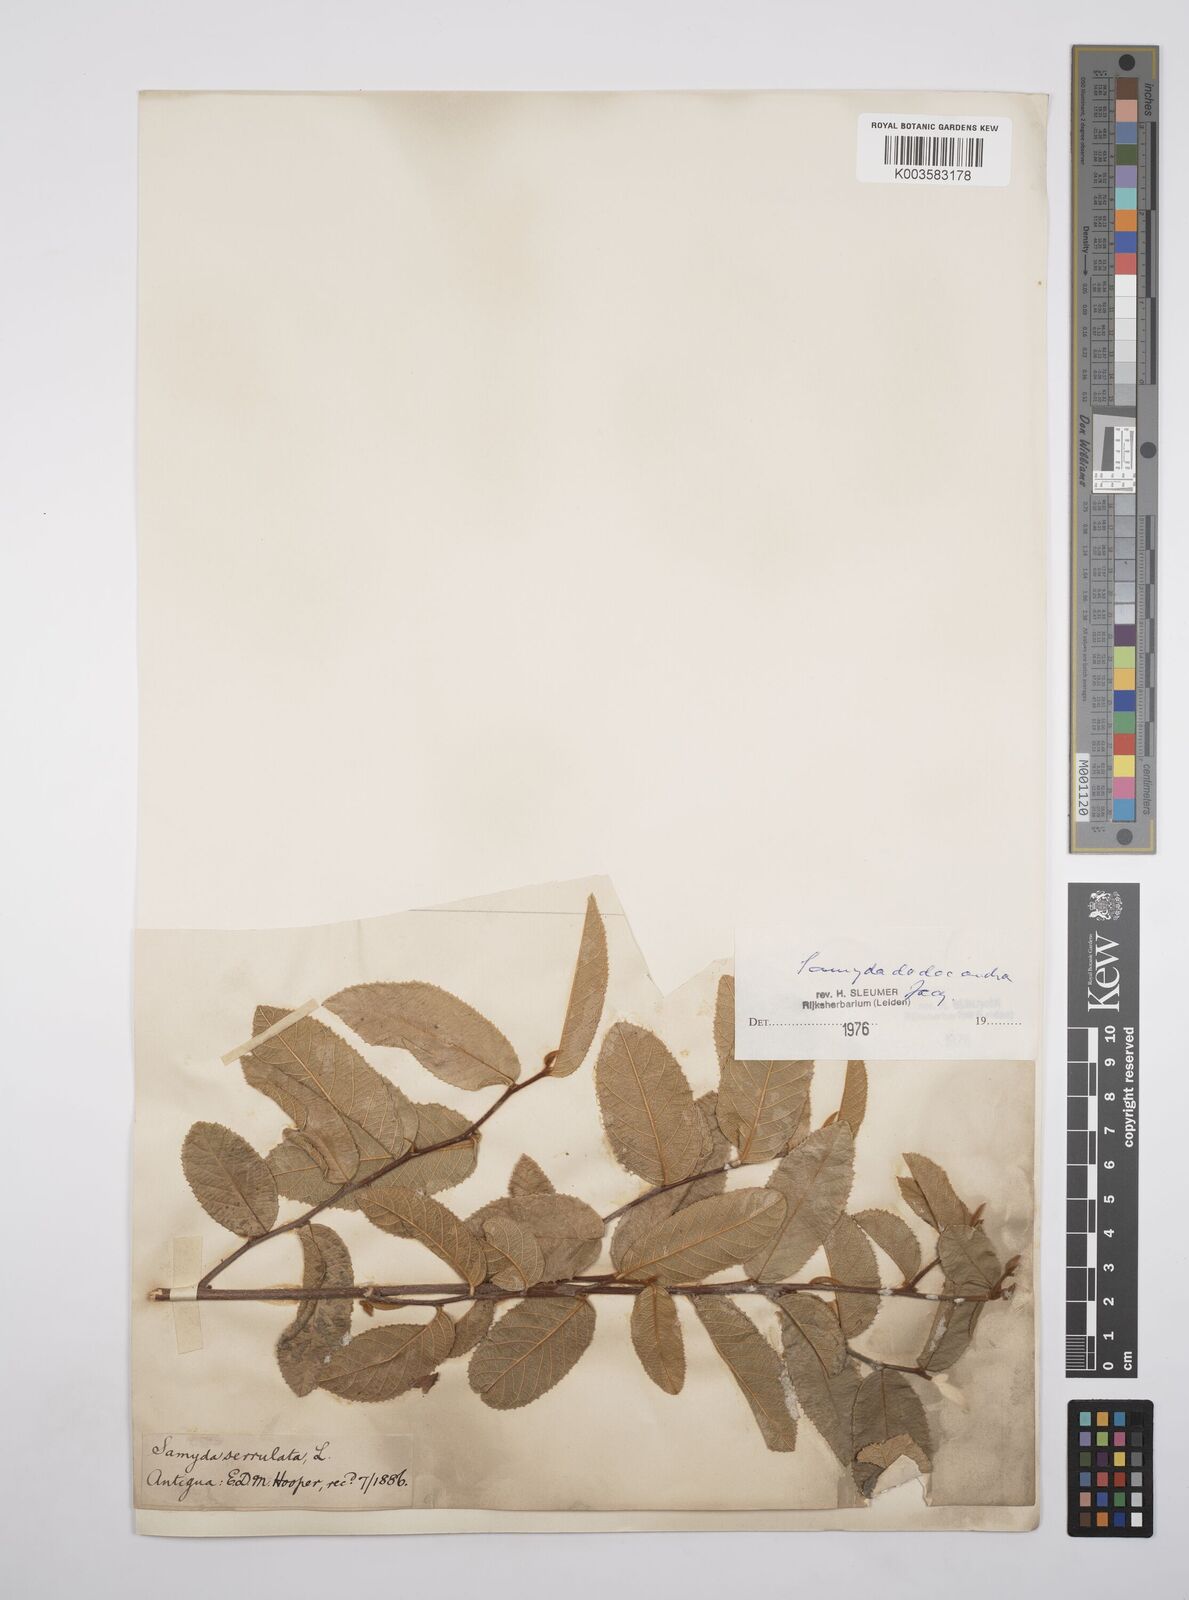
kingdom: Plantae
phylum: Tracheophyta
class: Magnoliopsida
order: Malpighiales
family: Salicaceae
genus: Casearia
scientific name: Casearia dodecandra
